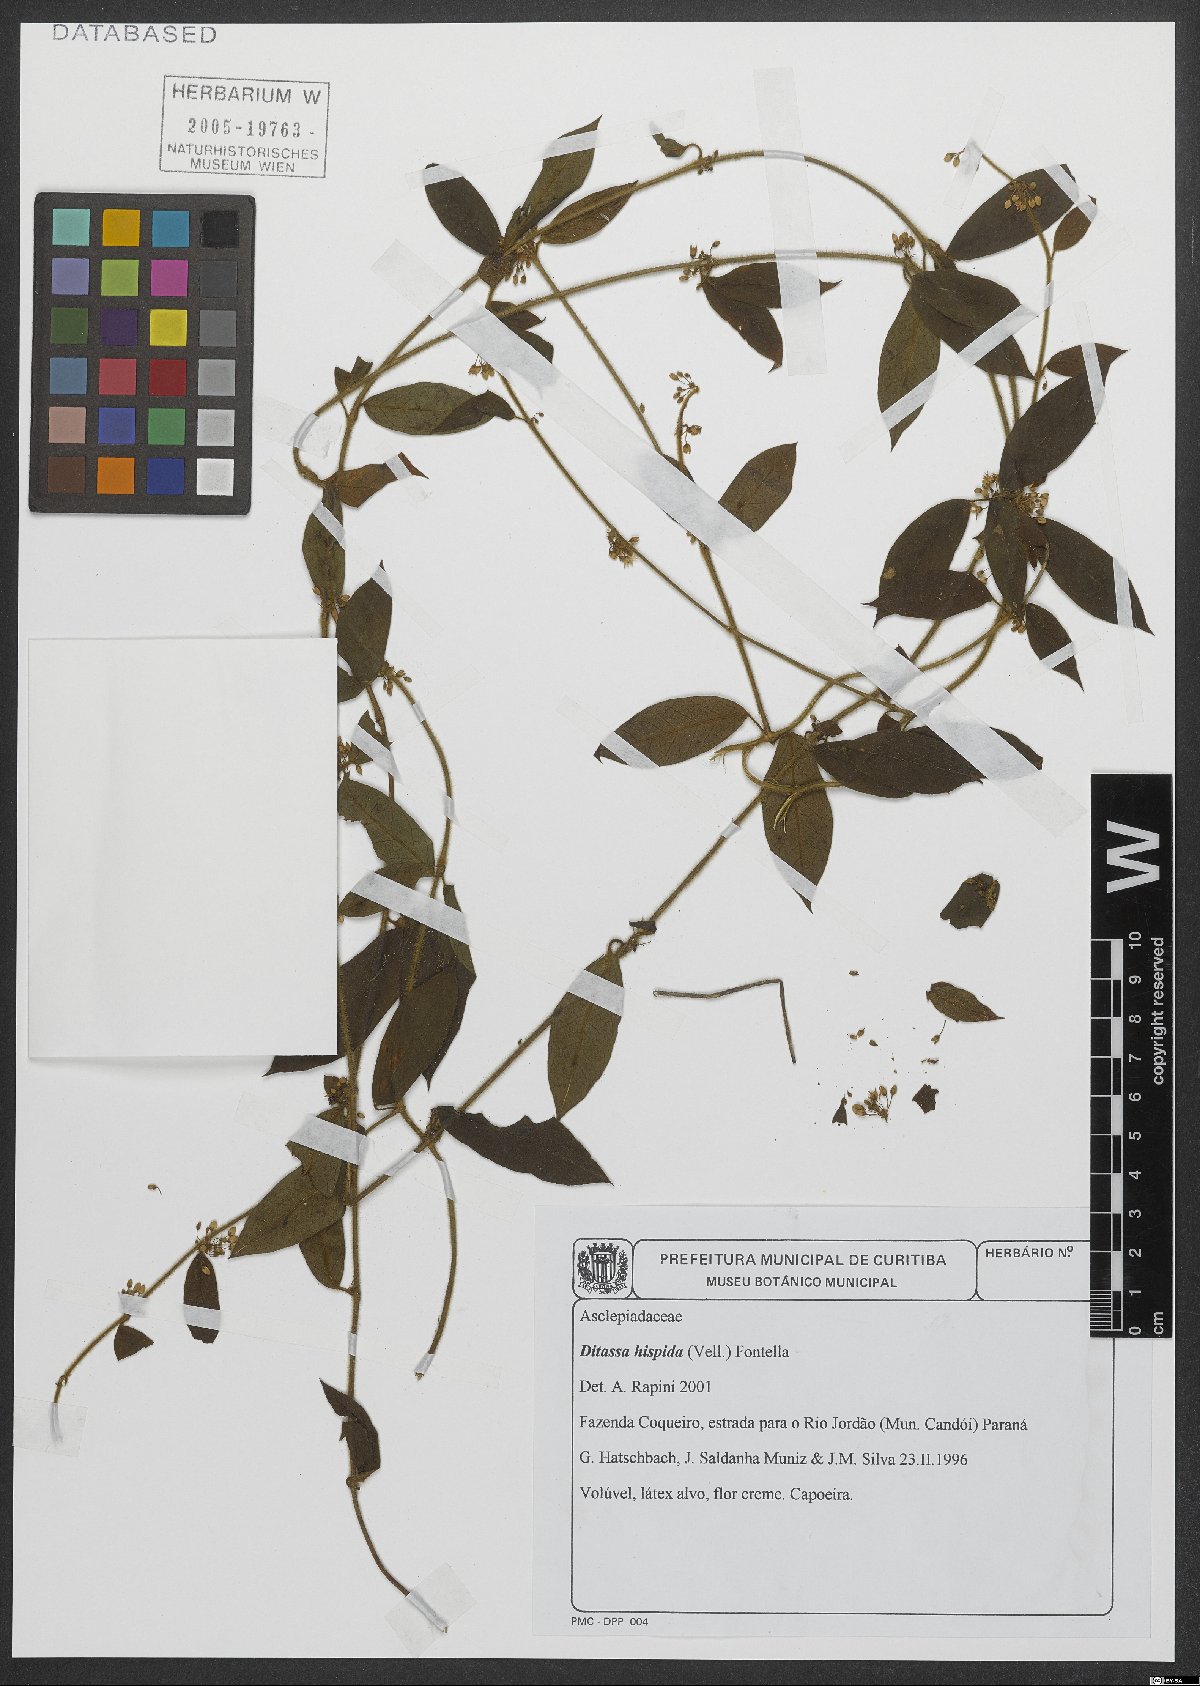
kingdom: Plantae
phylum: Tracheophyta
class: Magnoliopsida
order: Gentianales
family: Apocynaceae
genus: Ditassa
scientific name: Ditassa hispida
